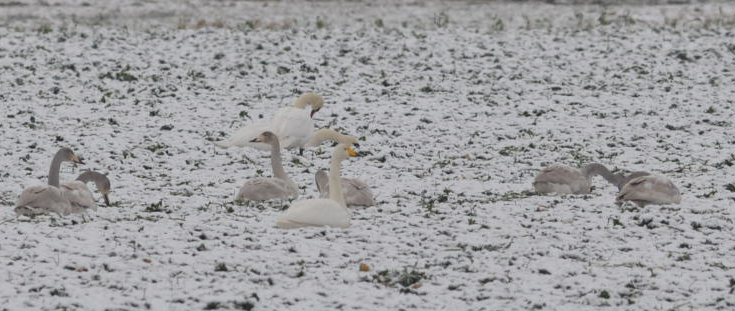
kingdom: Animalia
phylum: Chordata
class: Aves
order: Anseriformes
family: Anatidae
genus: Cygnus
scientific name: Cygnus cygnus
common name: Whooper swan
